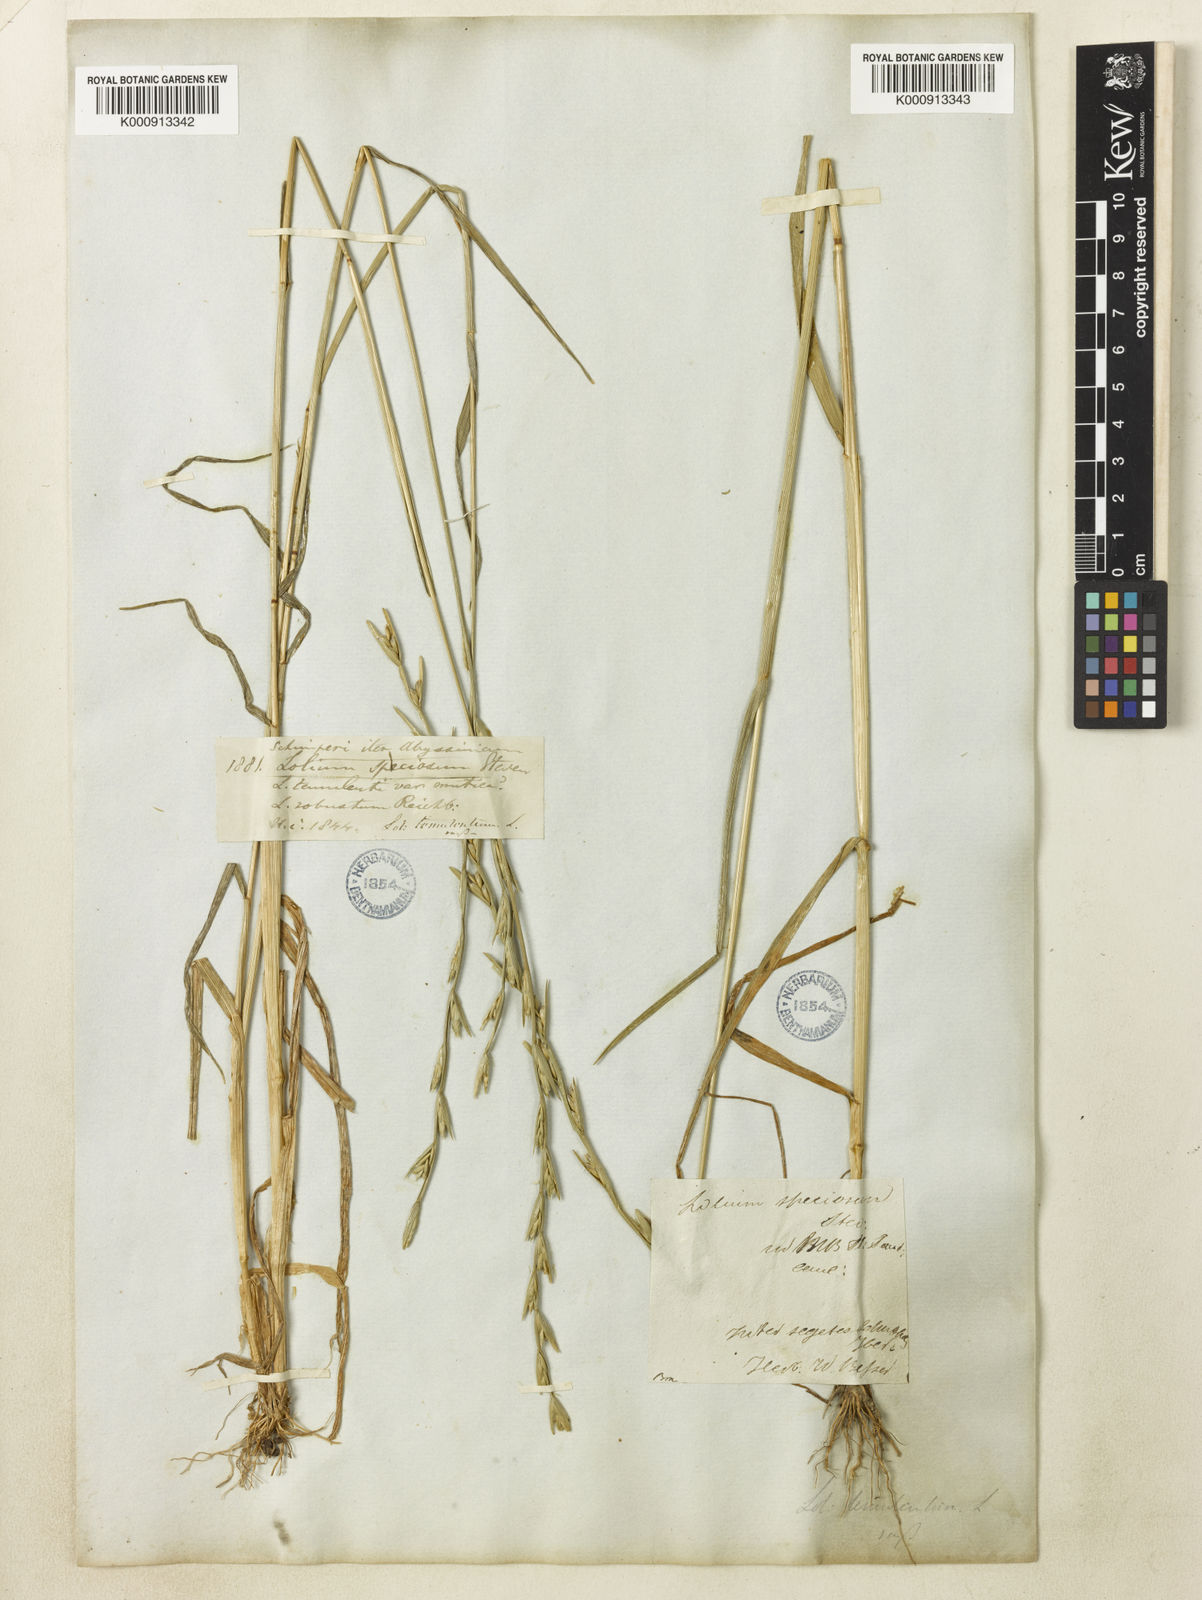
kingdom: Plantae
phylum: Tracheophyta
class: Liliopsida
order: Poales
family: Poaceae
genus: Lolium
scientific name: Lolium temulentum
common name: Darnel
